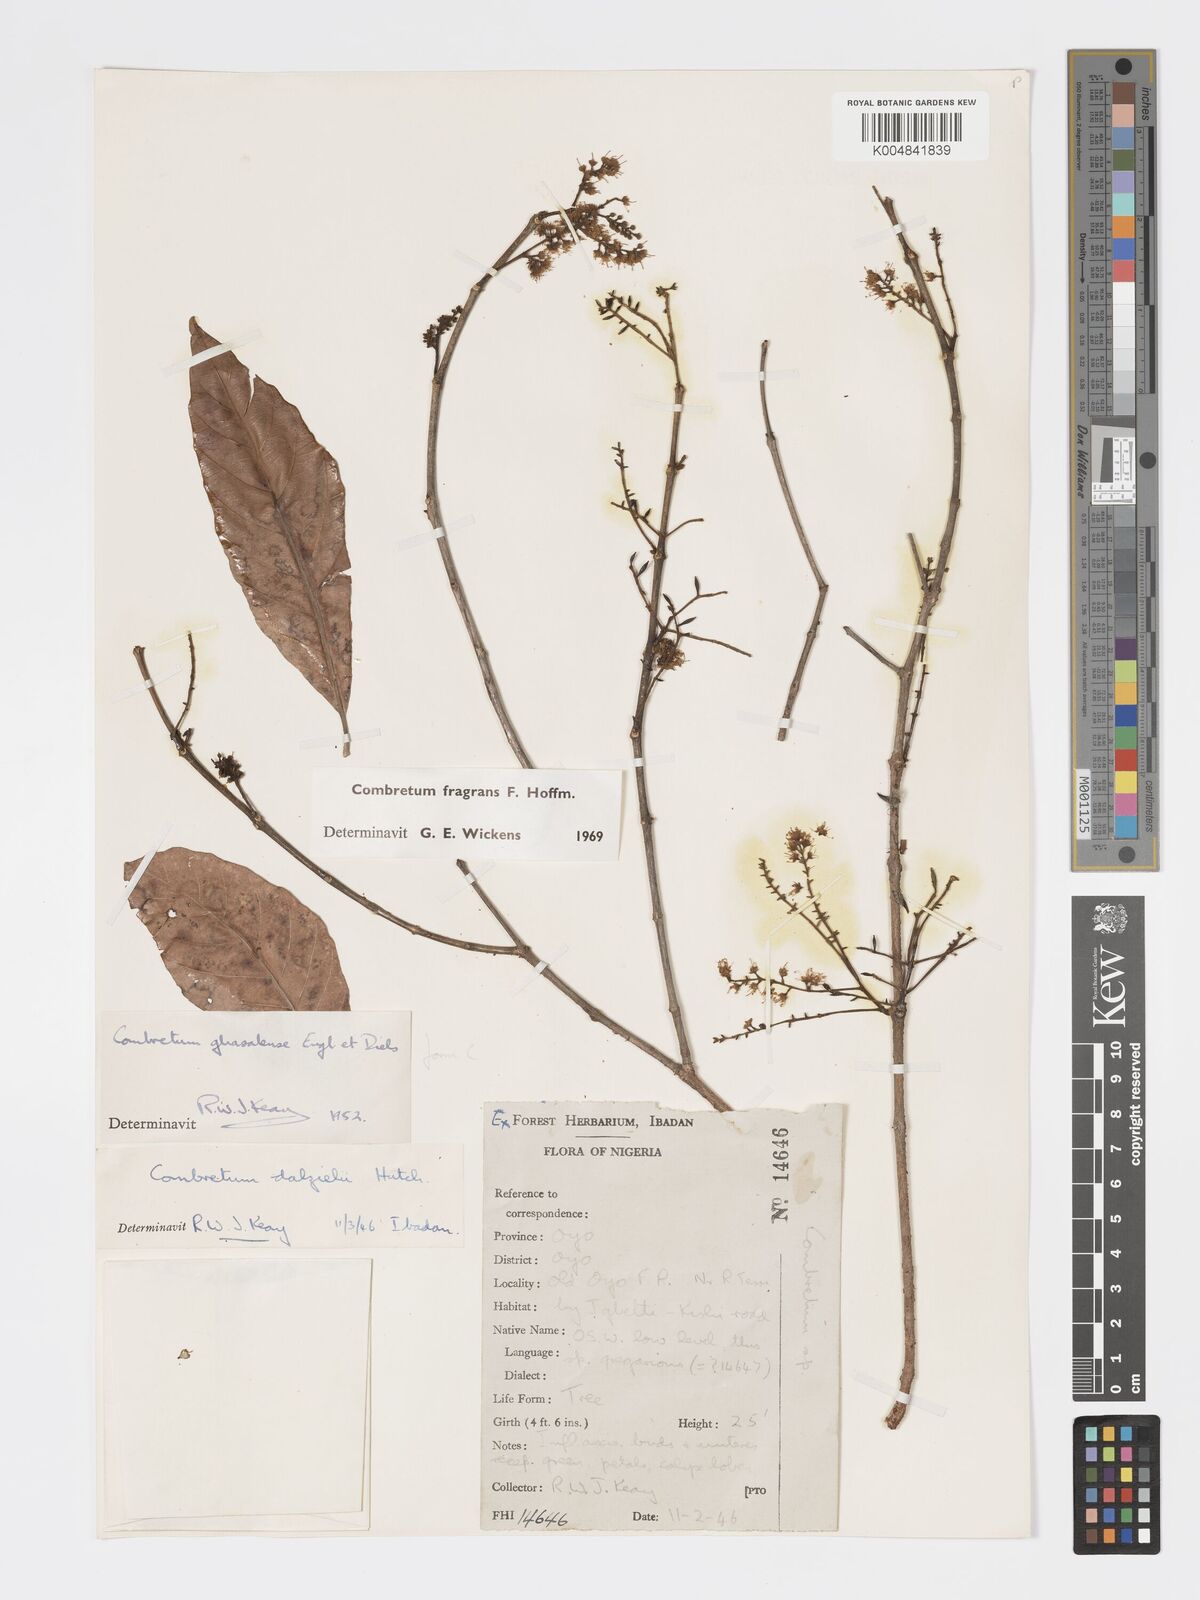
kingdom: Plantae
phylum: Tracheophyta
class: Magnoliopsida
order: Myrtales
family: Combretaceae
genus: Combretum
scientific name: Combretum adenogonium
